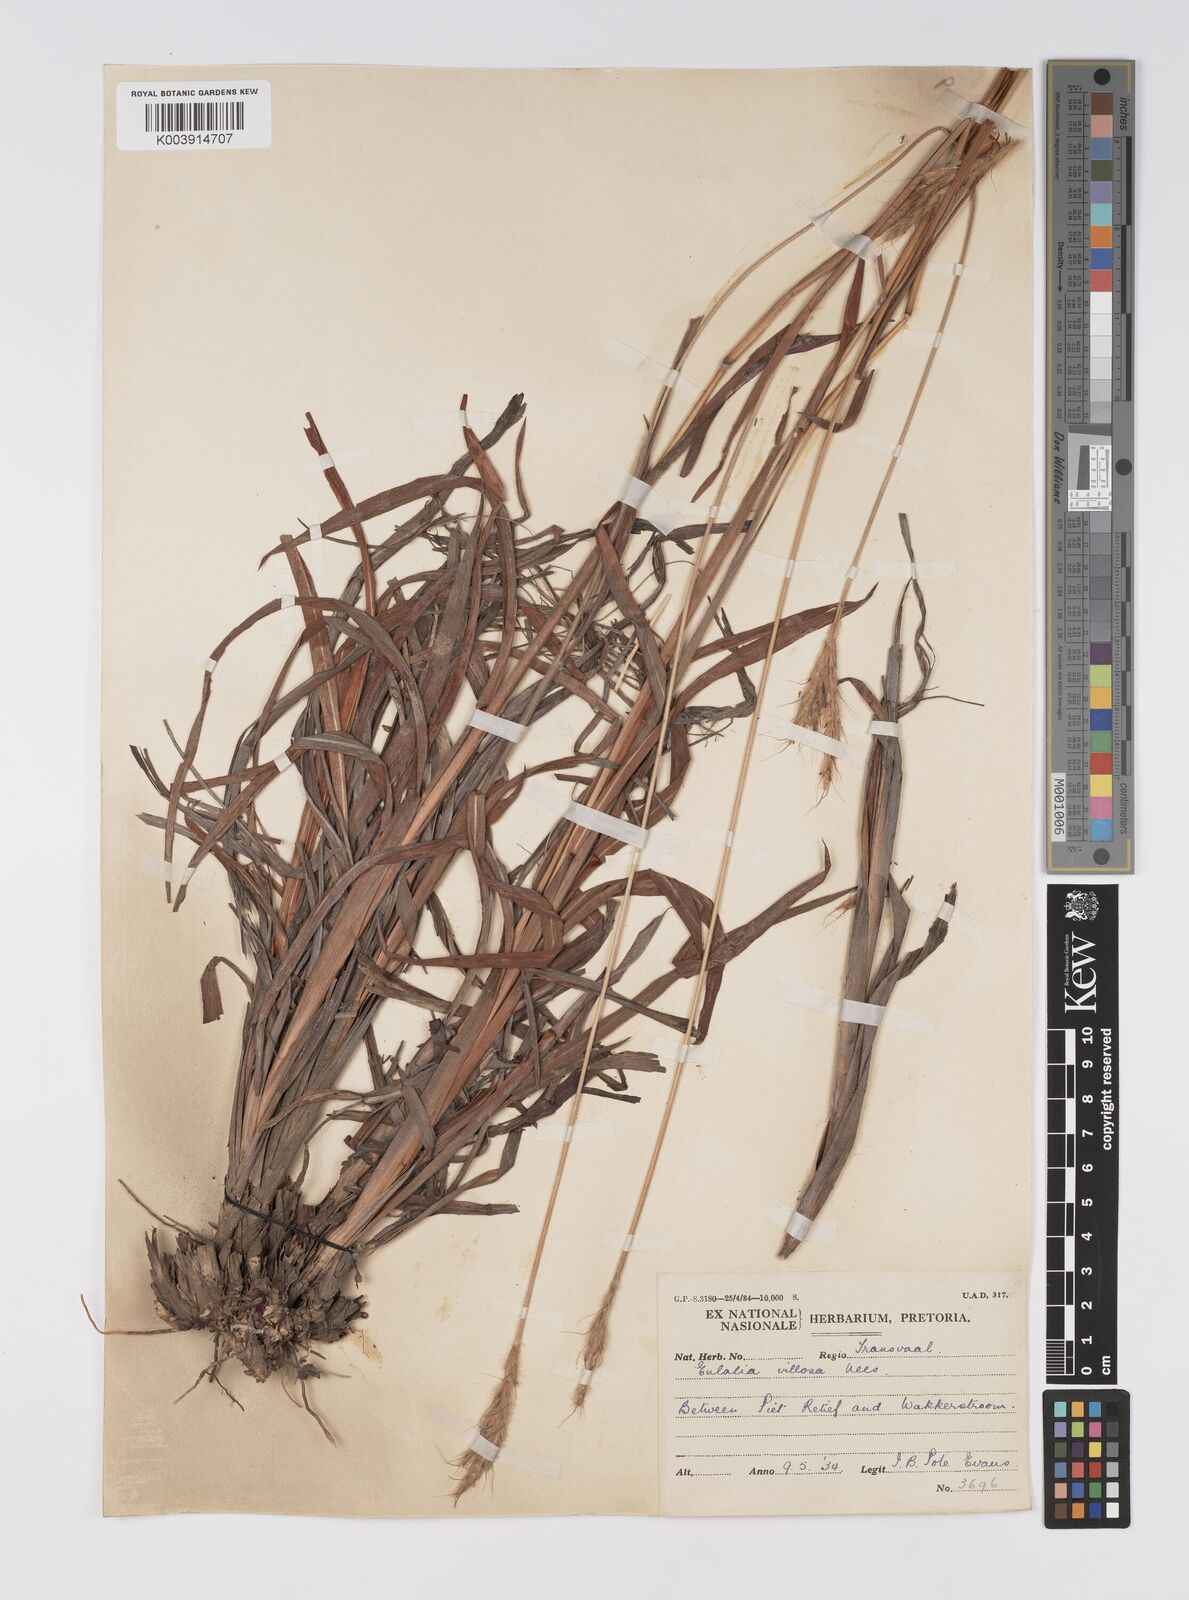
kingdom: Plantae
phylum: Tracheophyta
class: Liliopsida
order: Poales
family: Poaceae
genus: Eulalia
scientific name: Eulalia villosa
